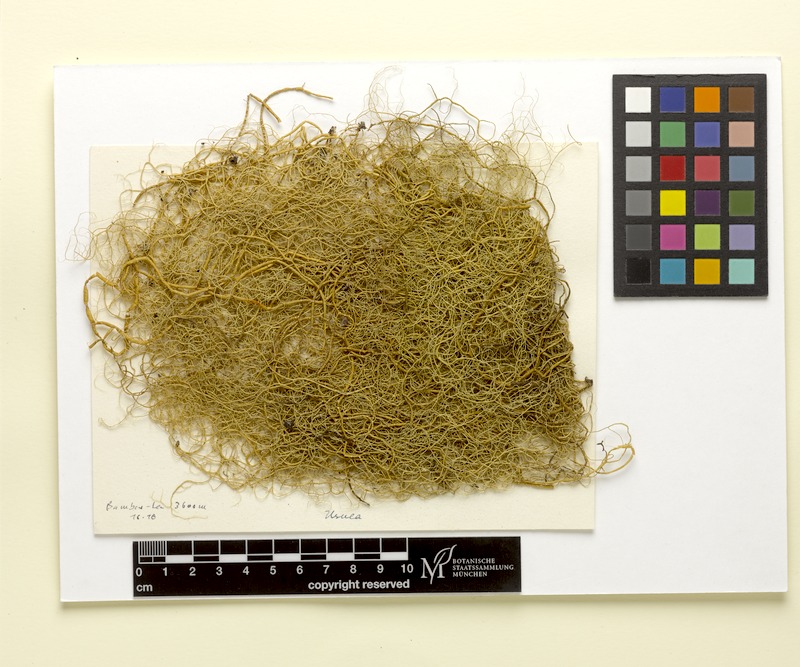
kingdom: Fungi
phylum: Ascomycota
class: Lecanoromycetes
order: Lecanorales
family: Parmeliaceae
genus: Usnea
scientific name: Usnea
